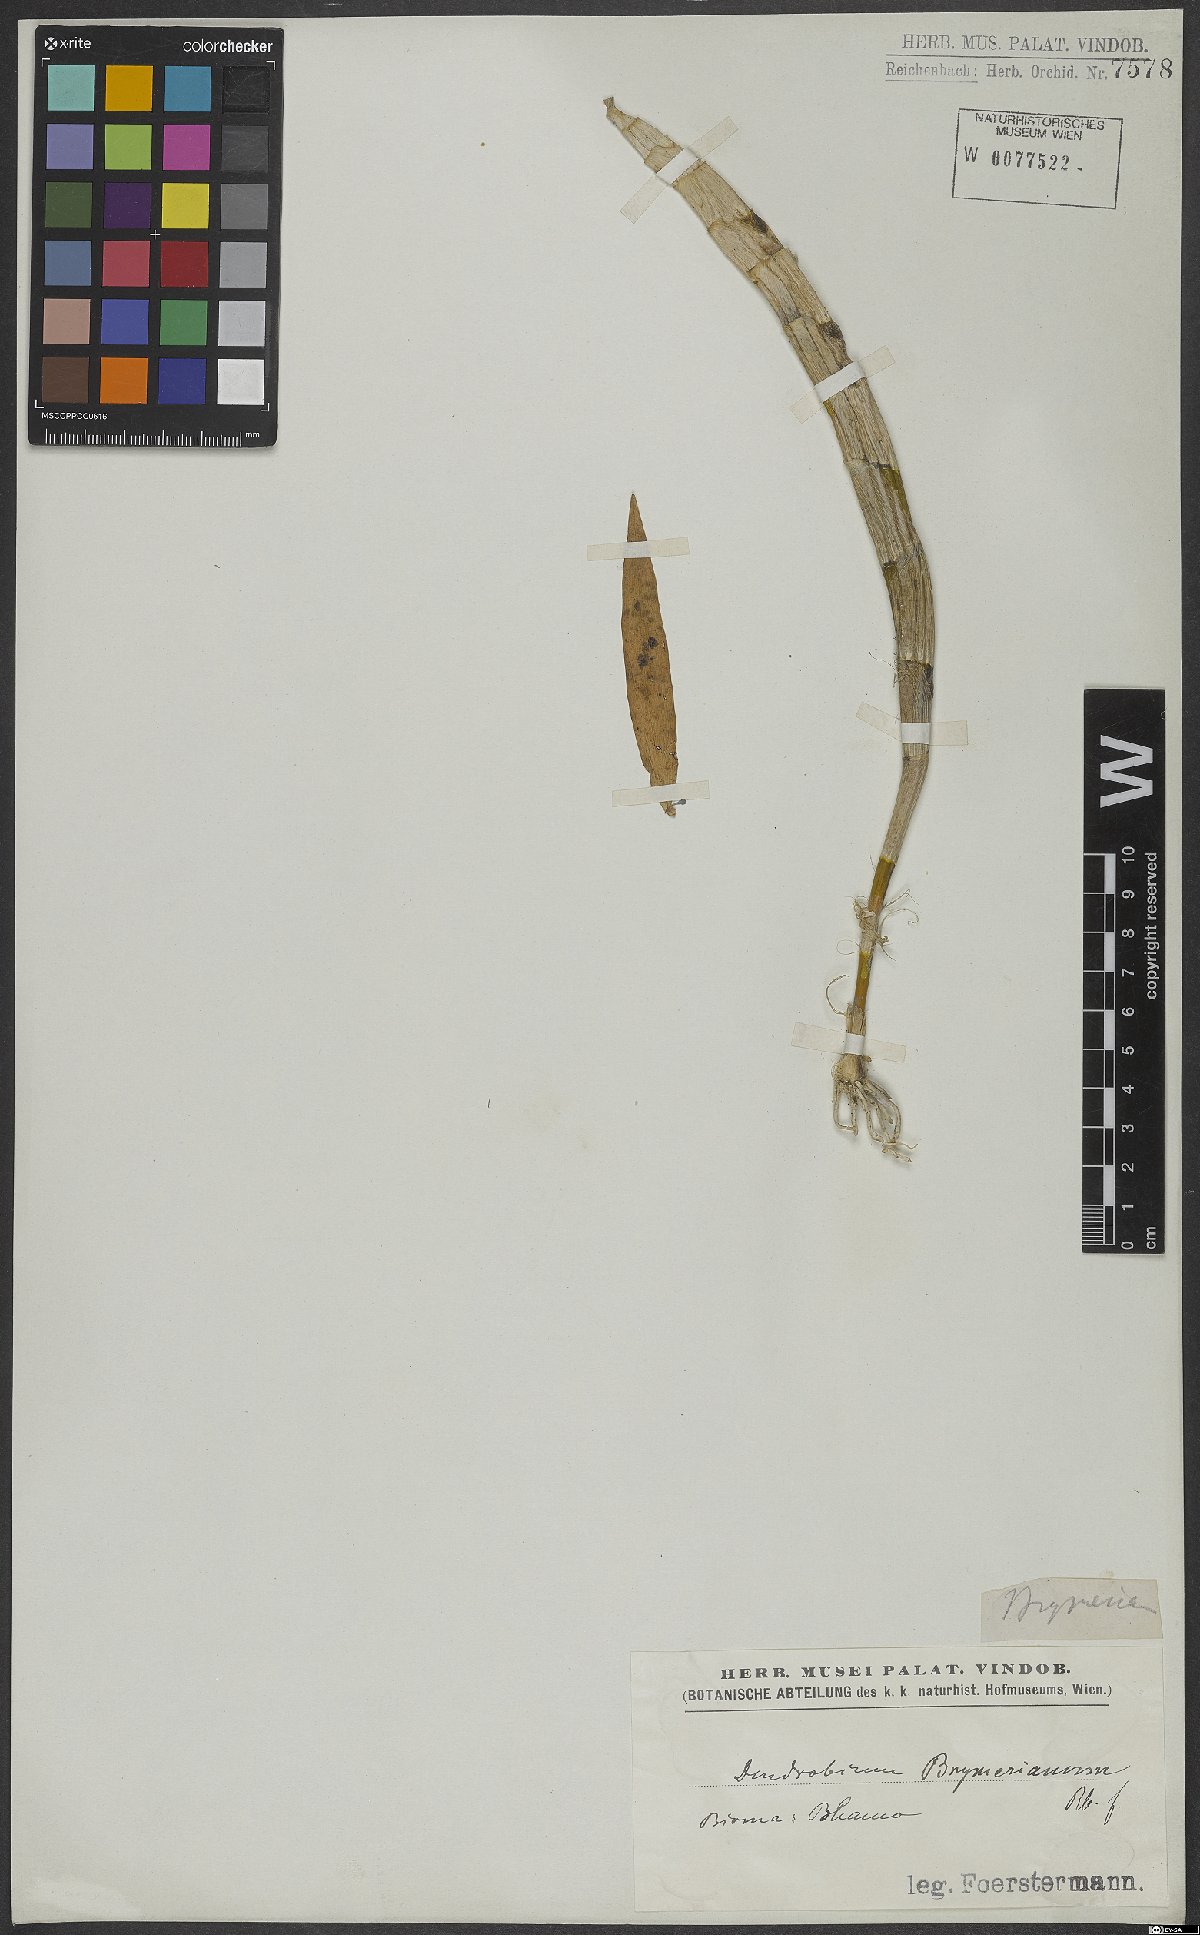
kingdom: Plantae
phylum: Tracheophyta
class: Liliopsida
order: Asparagales
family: Orchidaceae
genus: Dendrobium
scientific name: Dendrobium brymerianum
